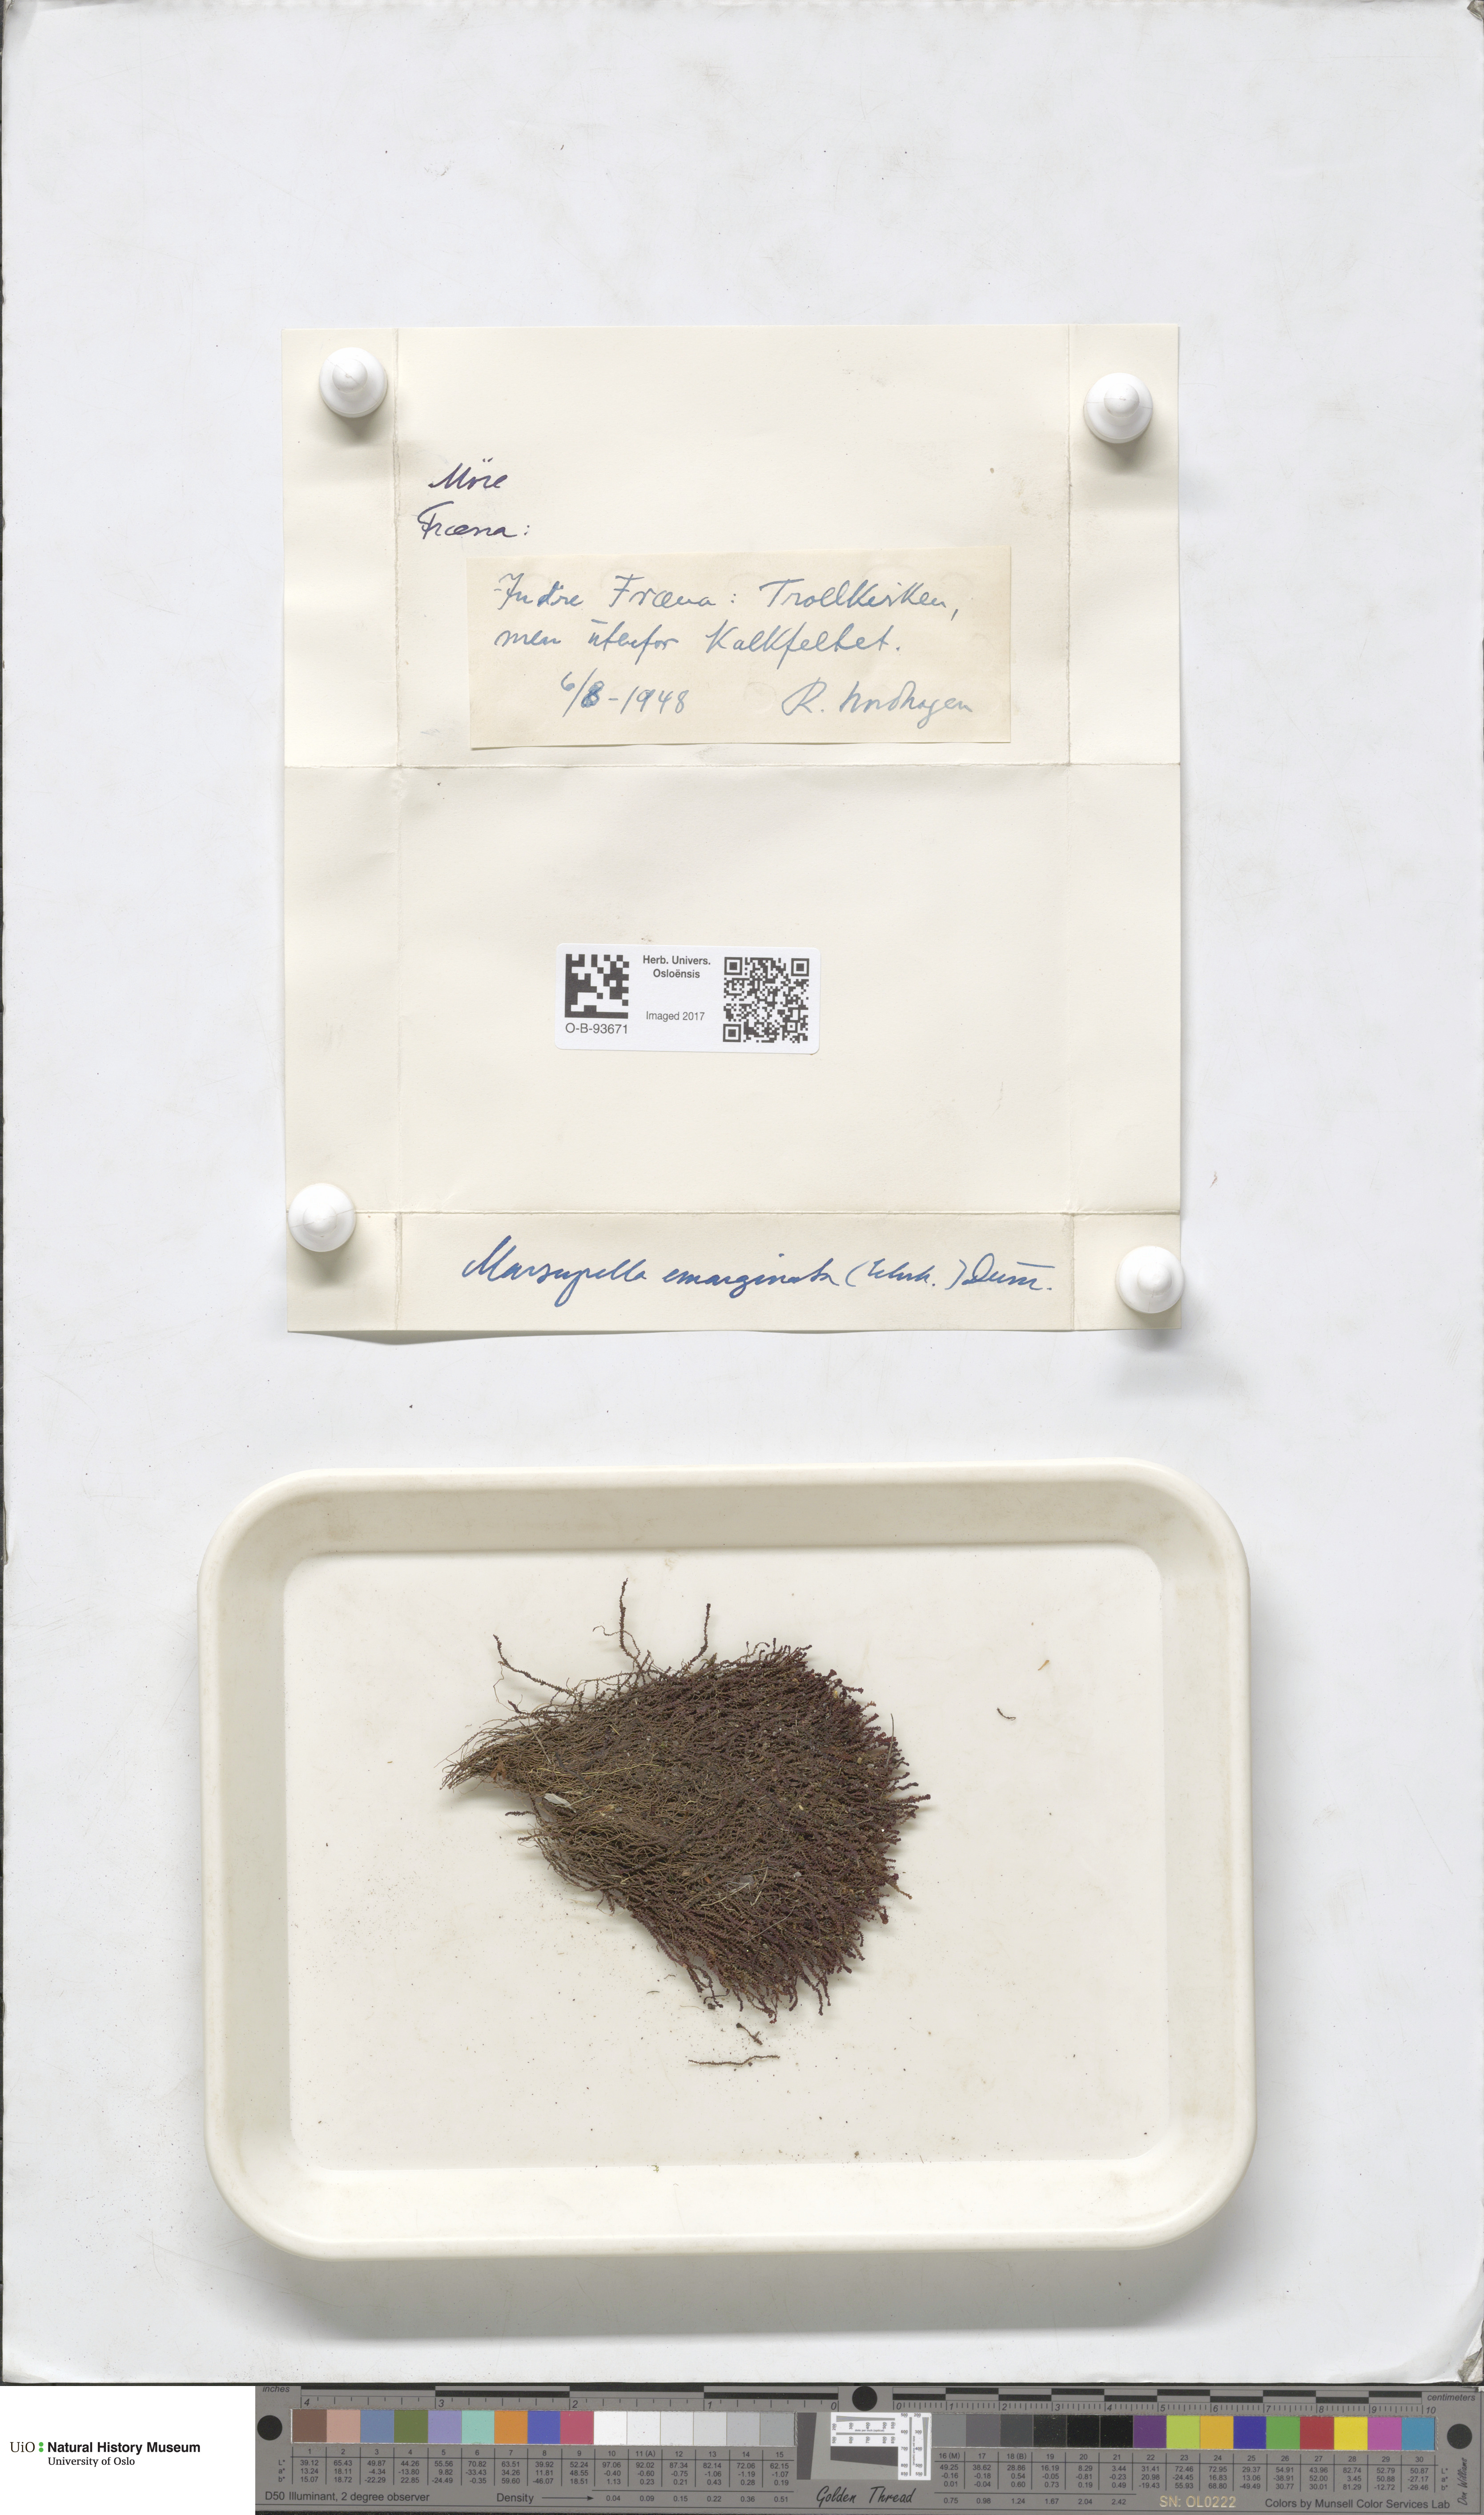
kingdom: Plantae
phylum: Marchantiophyta
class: Jungermanniopsida
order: Jungermanniales
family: Gymnomitriaceae
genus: Marsupella
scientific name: Marsupella emarginata
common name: Notched rustwort
